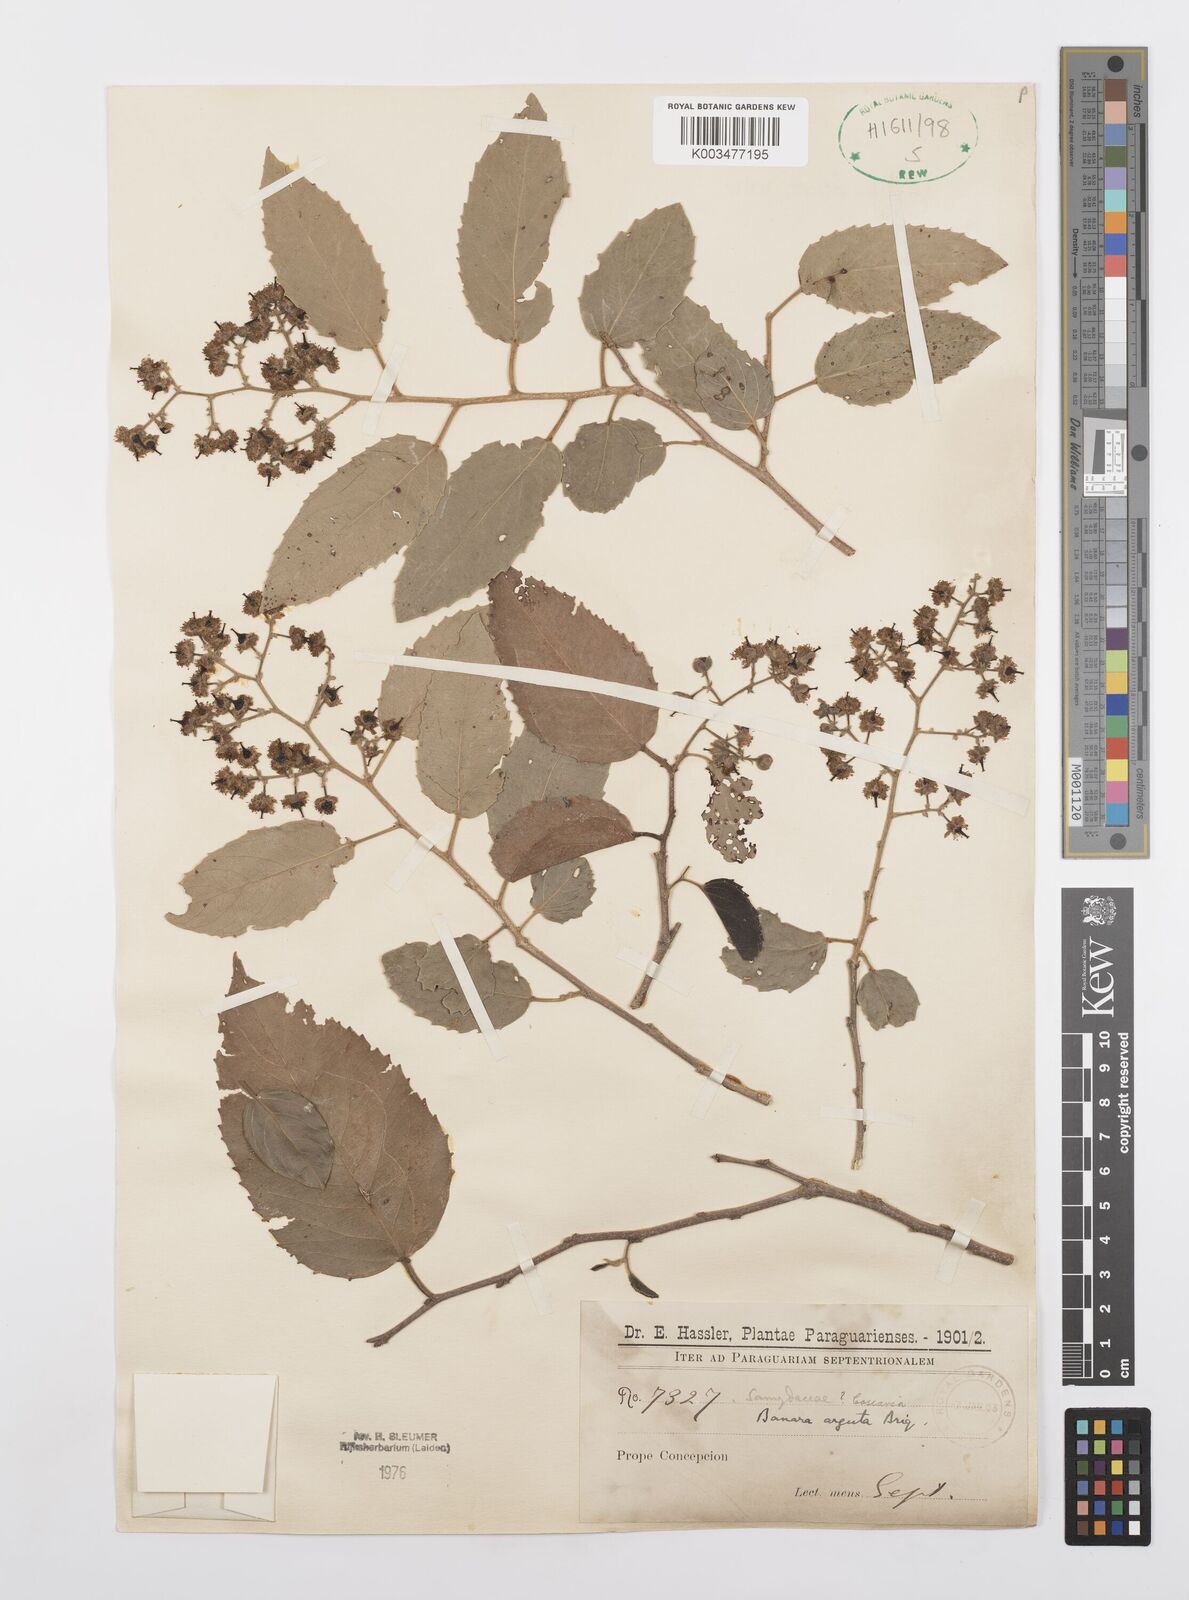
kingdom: Plantae
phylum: Tracheophyta
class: Magnoliopsida
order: Malpighiales
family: Salicaceae
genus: Banara
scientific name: Banara arguta
